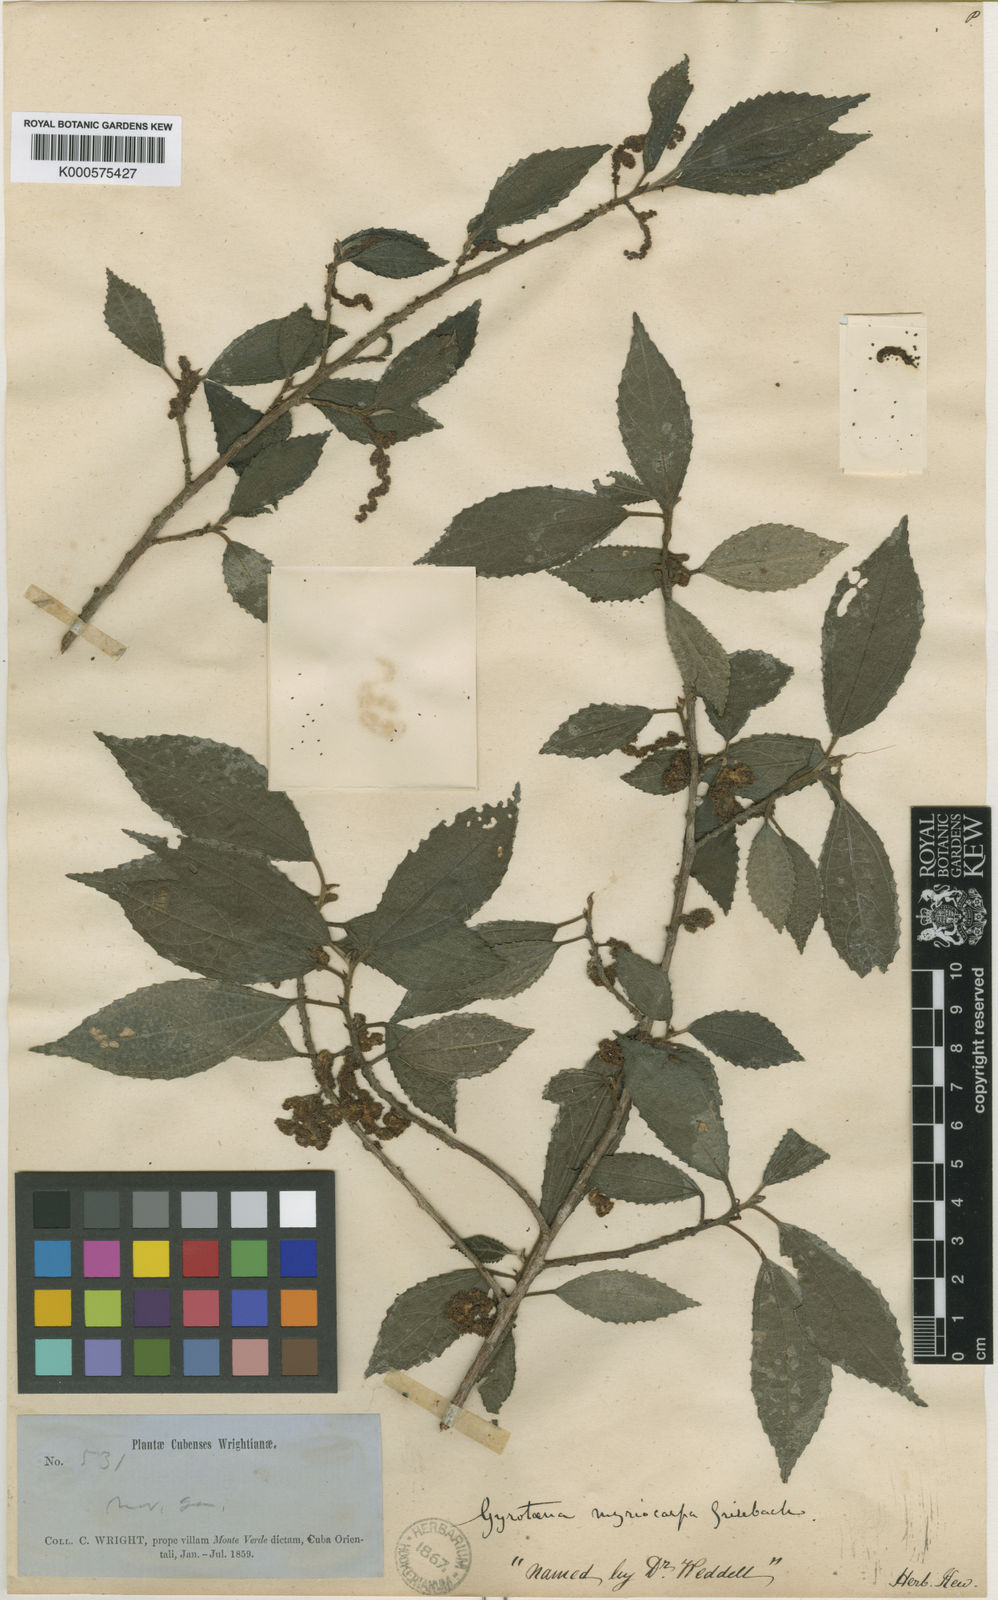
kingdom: Plantae
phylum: Tracheophyta
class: Magnoliopsida
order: Rosales
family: Urticaceae
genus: Gyrotaenia
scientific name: Gyrotaenia myriocarpa
